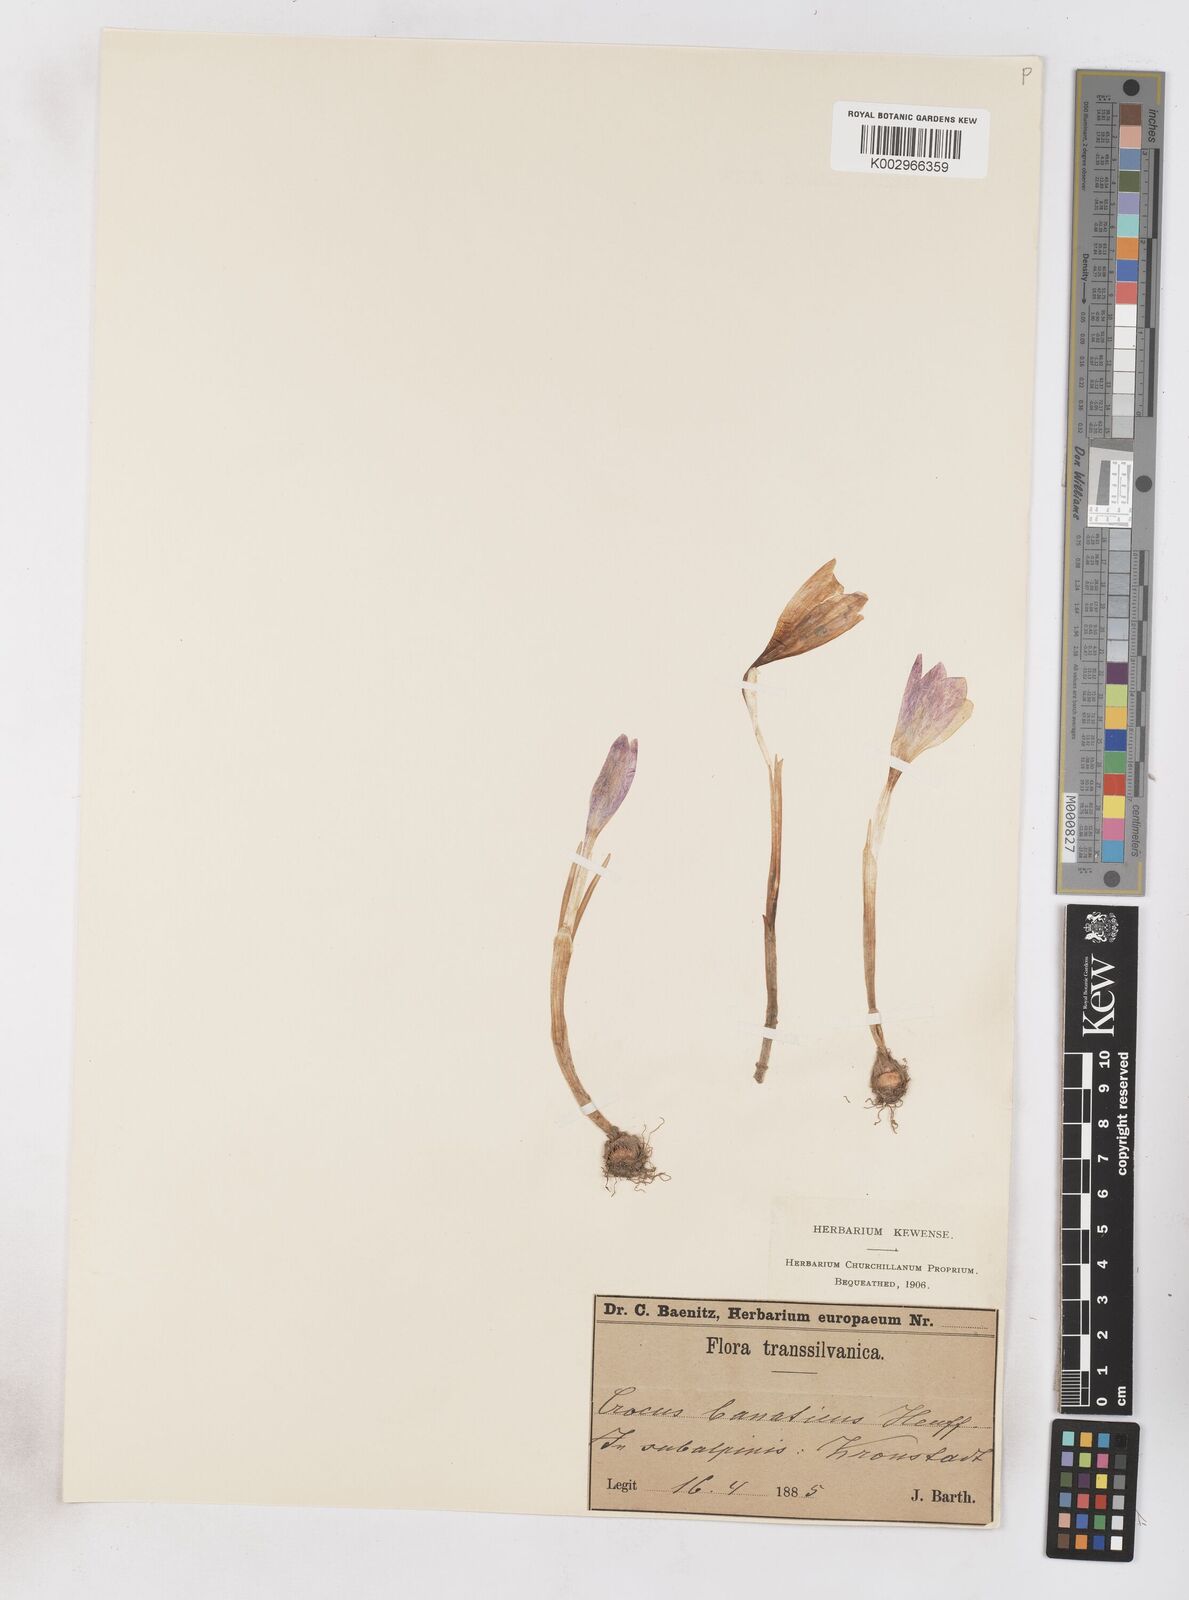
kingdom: Plantae
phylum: Tracheophyta
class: Liliopsida
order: Asparagales
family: Iridaceae
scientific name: Iridaceae
